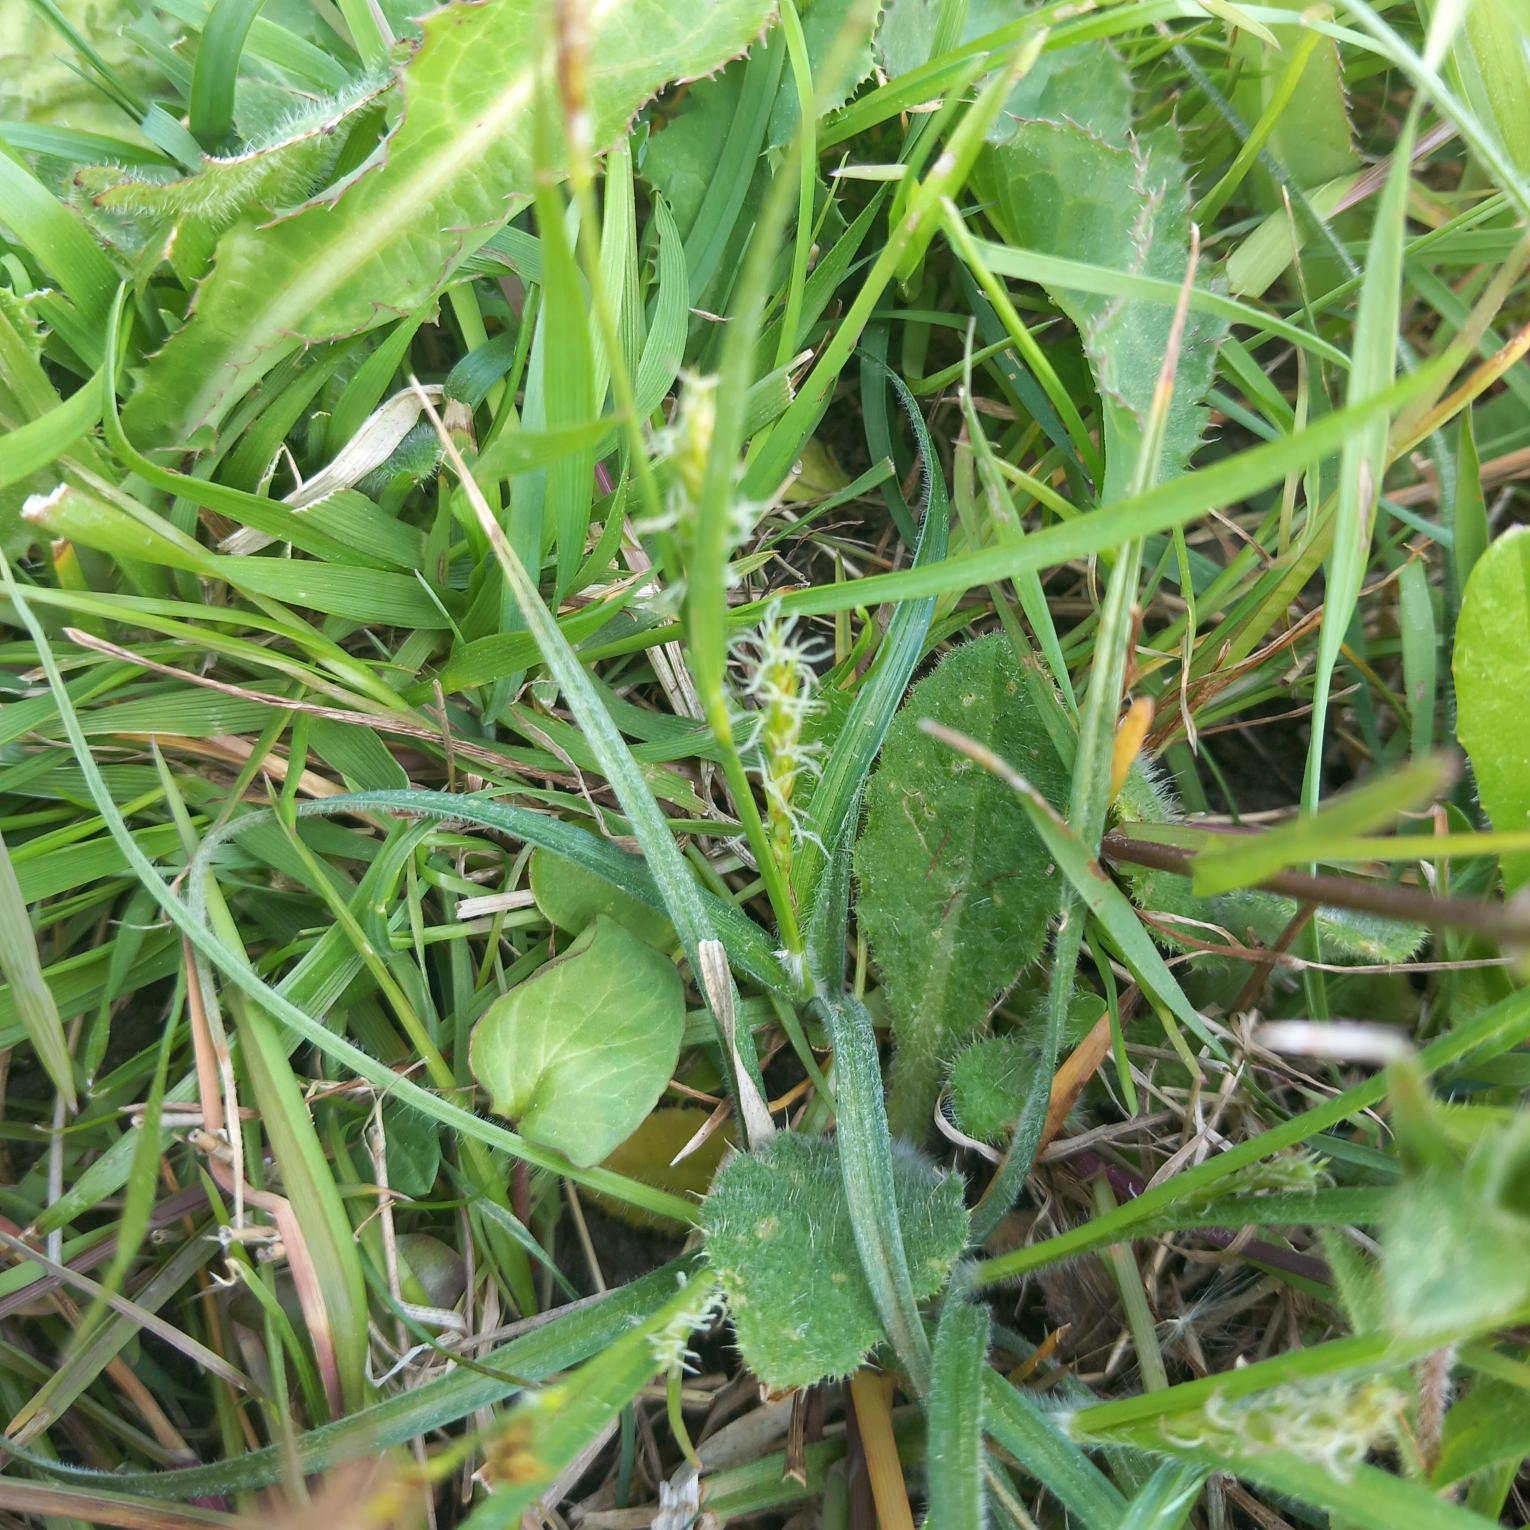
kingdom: Plantae
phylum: Tracheophyta
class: Liliopsida
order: Poales
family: Cyperaceae
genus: Carex
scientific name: Carex hirta
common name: Håret star
